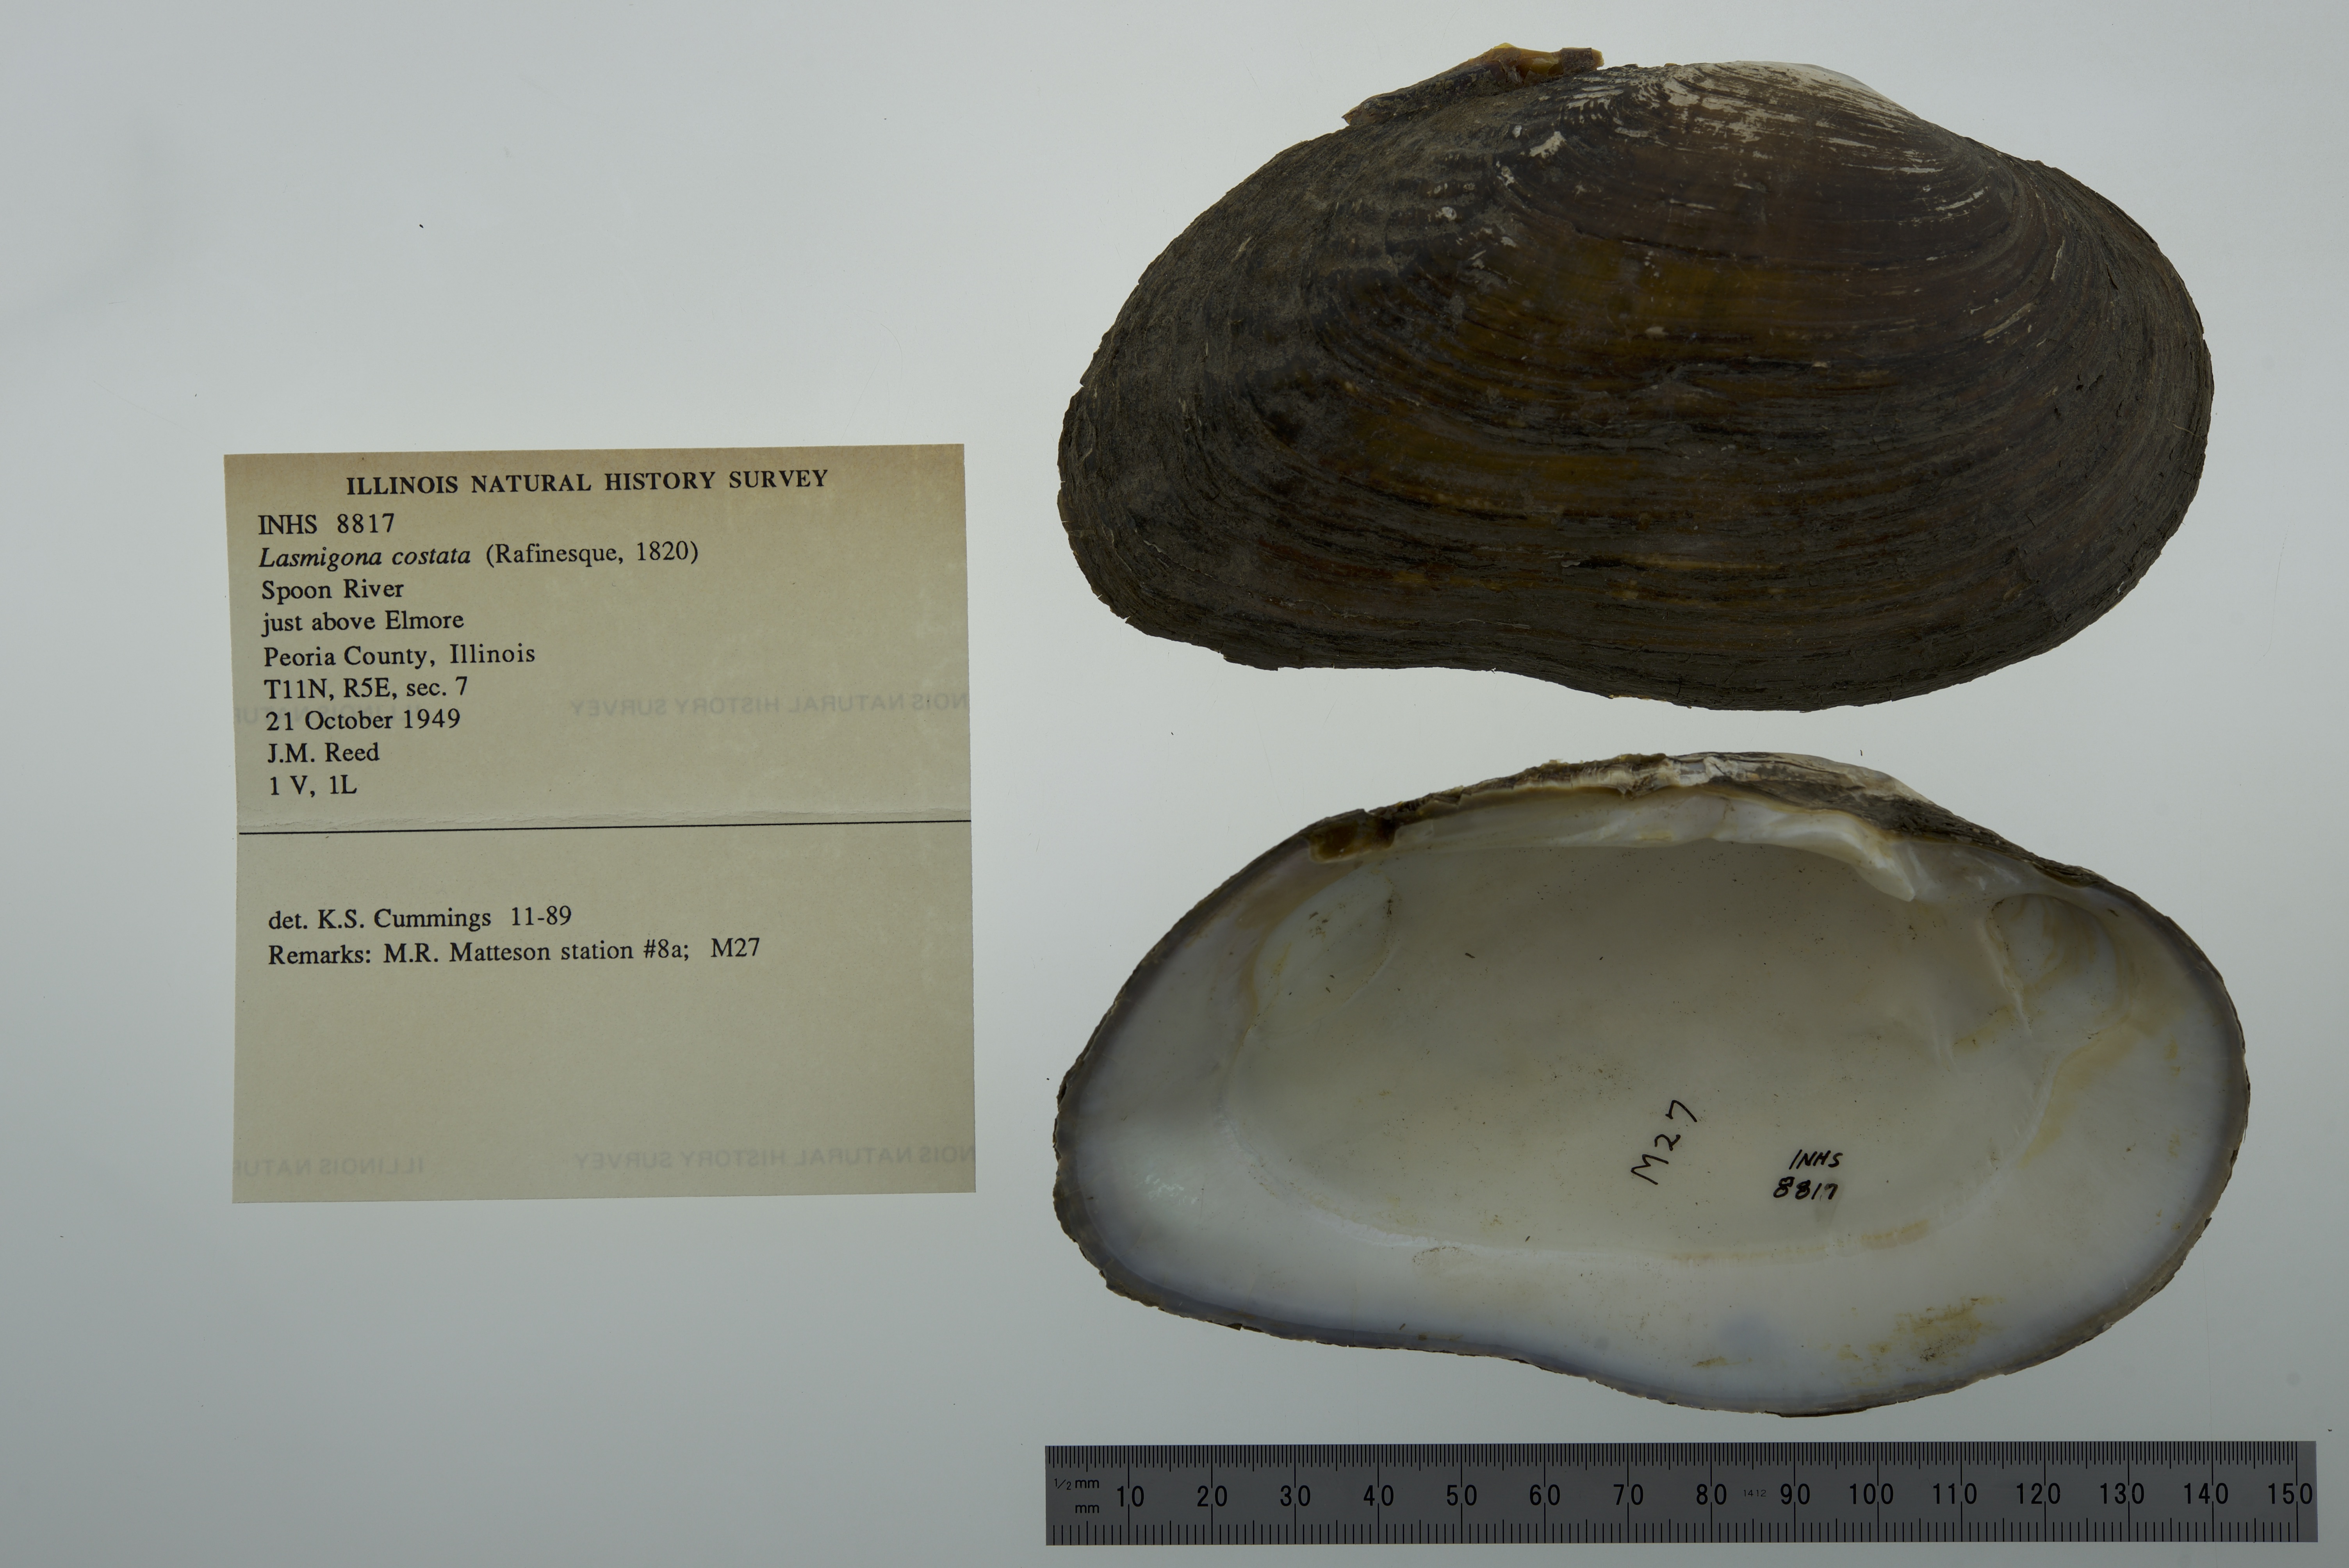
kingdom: Animalia
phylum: Mollusca
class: Bivalvia
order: Unionida
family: Unionidae
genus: Lasmigona
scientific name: Lasmigona costata
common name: Flutedshell
